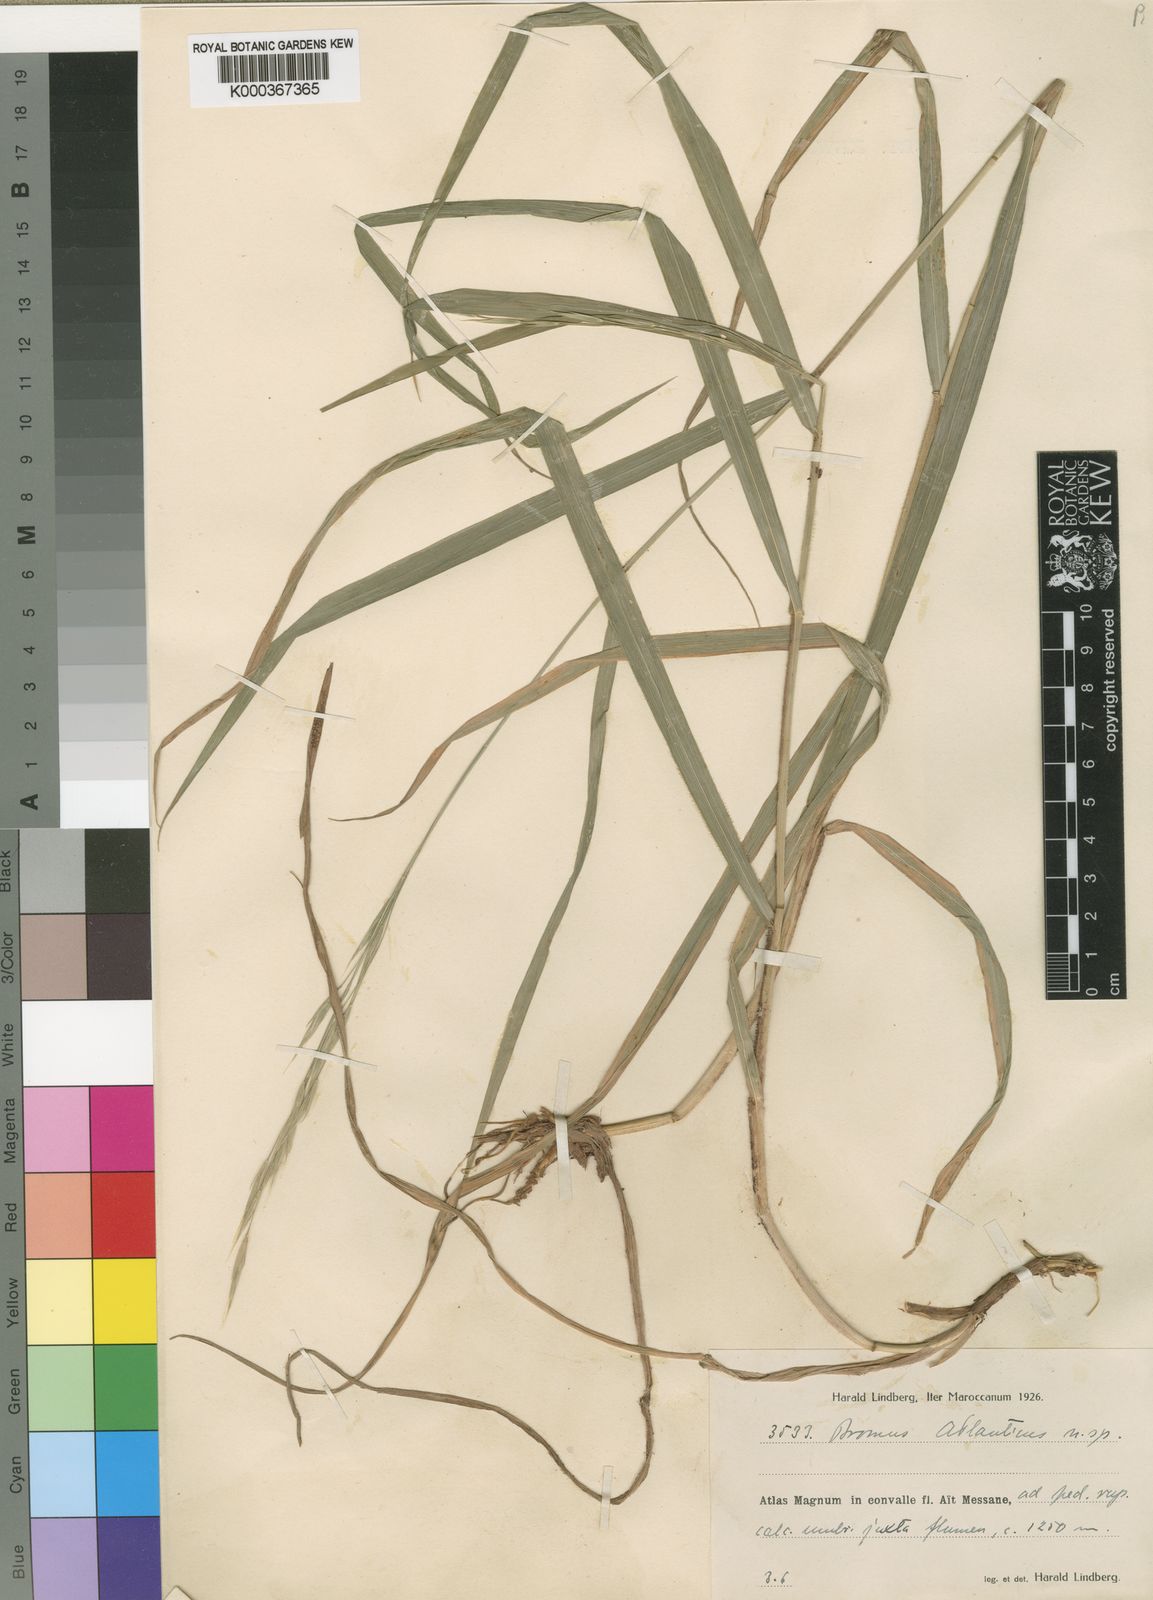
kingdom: Plantae
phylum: Tracheophyta
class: Liliopsida
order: Poales
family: Poaceae
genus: Brachypodium
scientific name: Brachypodium retusum
